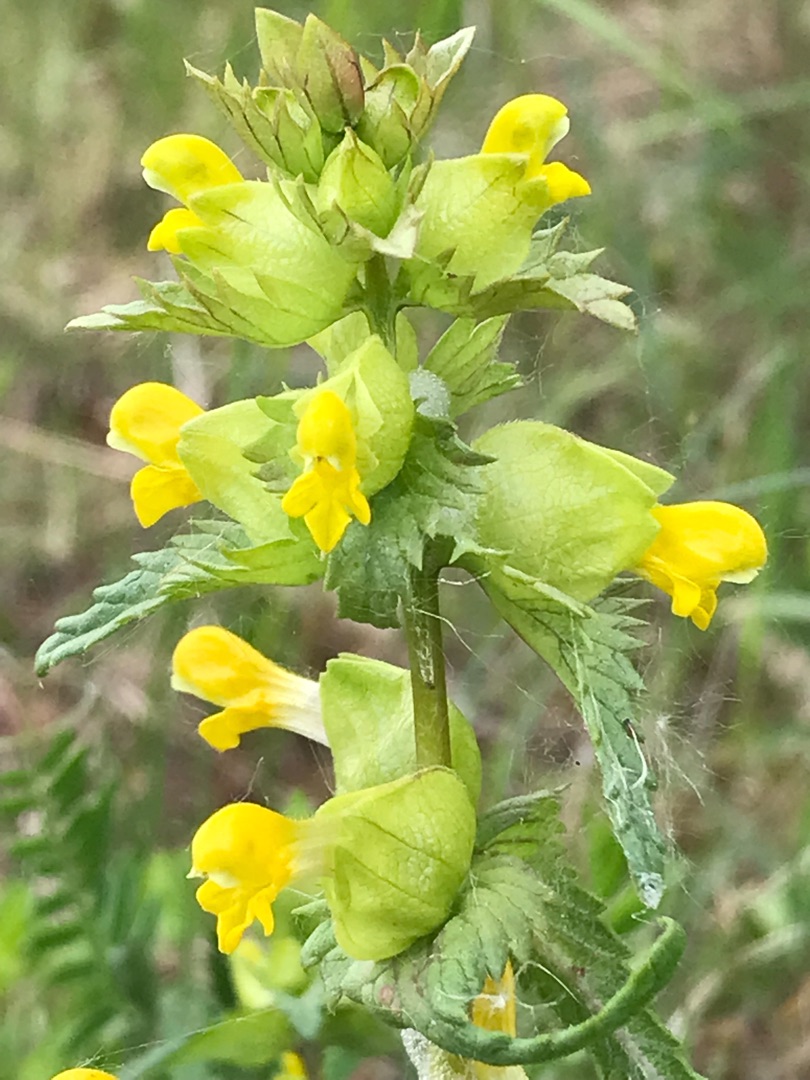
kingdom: Plantae
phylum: Tracheophyta
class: Magnoliopsida
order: Lamiales
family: Orobanchaceae
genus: Rhinanthus
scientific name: Rhinanthus minor
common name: Liden skjaller
